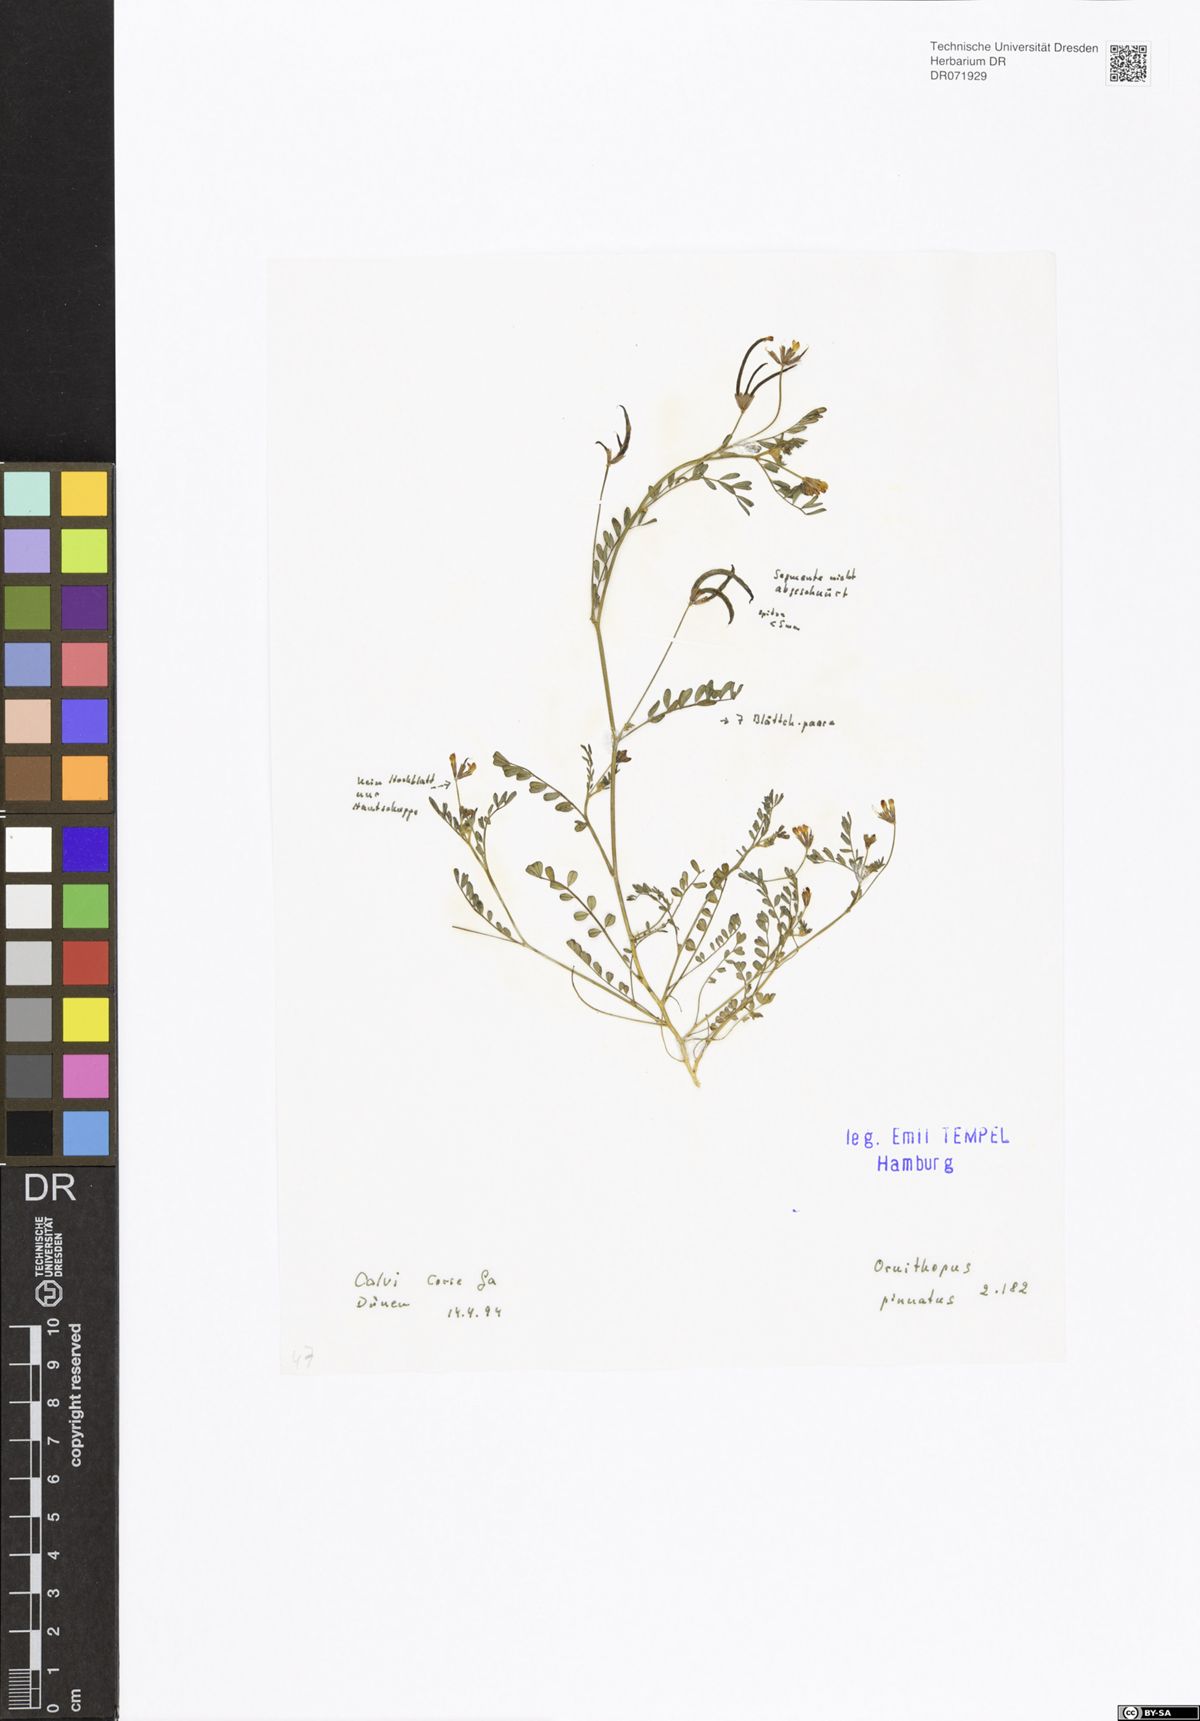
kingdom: Plantae
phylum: Tracheophyta
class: Magnoliopsida
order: Fabales
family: Fabaceae
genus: Ornithopus
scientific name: Ornithopus pinnatus
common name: Orange bird's-foot
